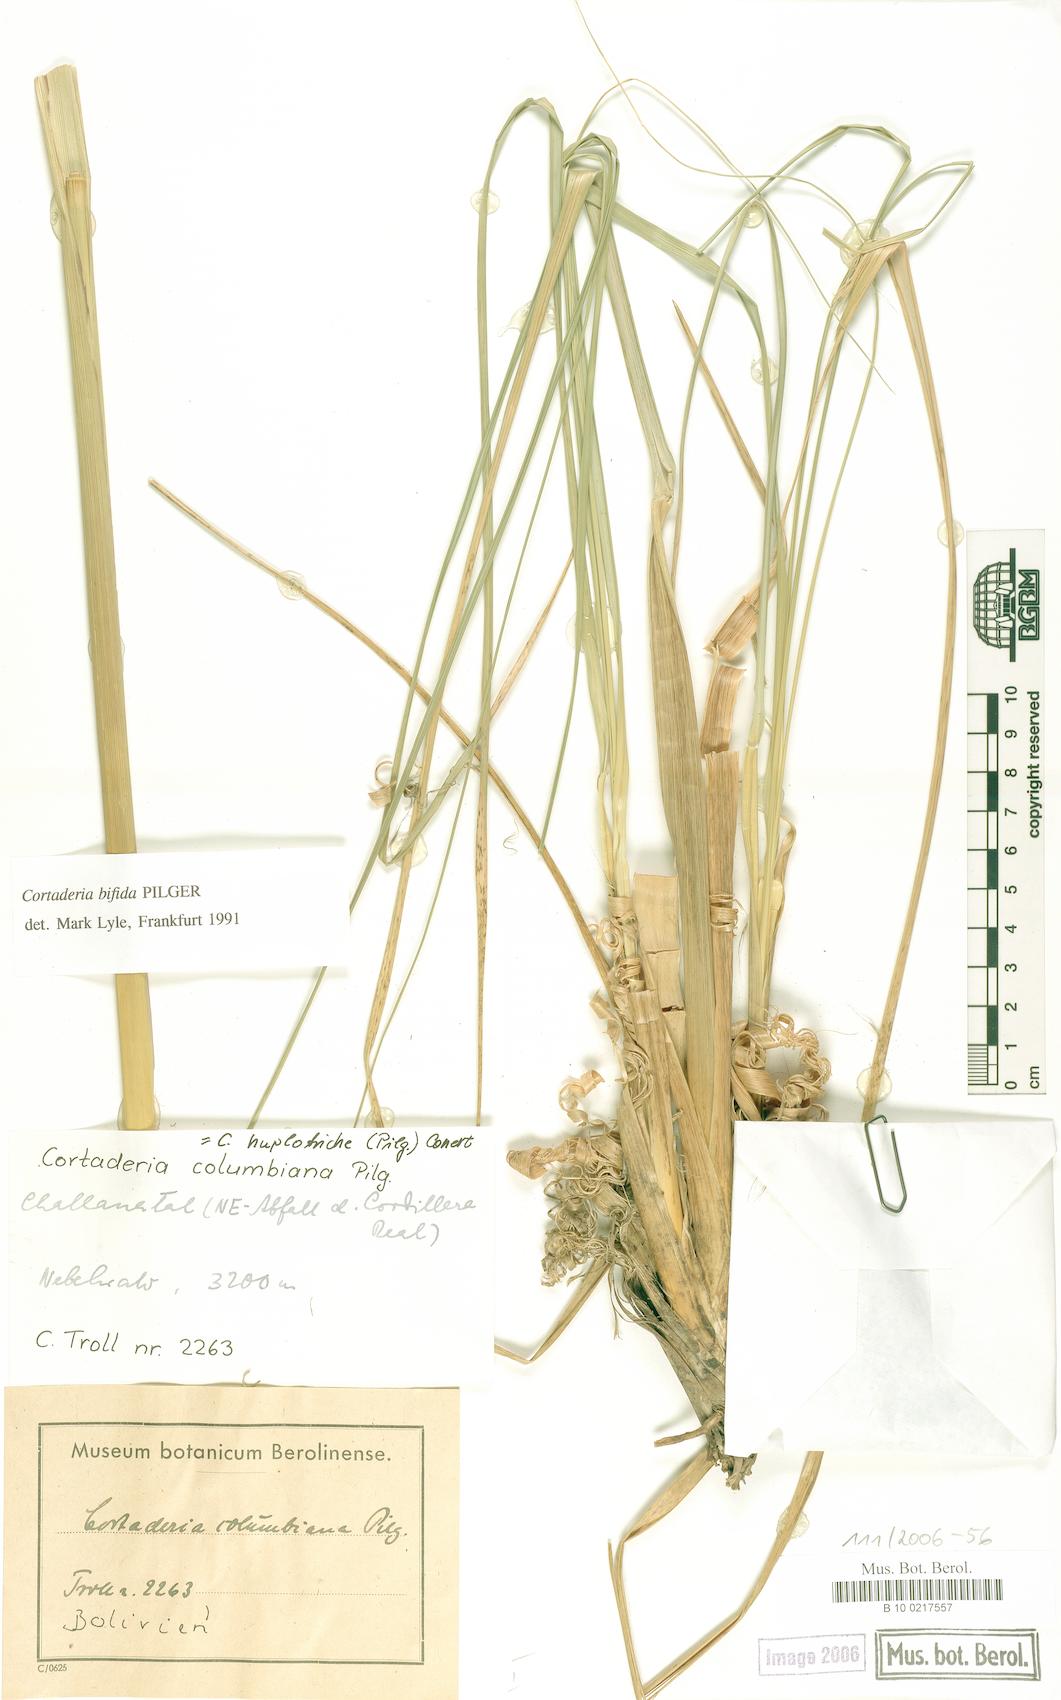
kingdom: Plantae
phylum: Tracheophyta
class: Liliopsida
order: Poales
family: Poaceae
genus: Cortaderia
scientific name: Cortaderia bifida
